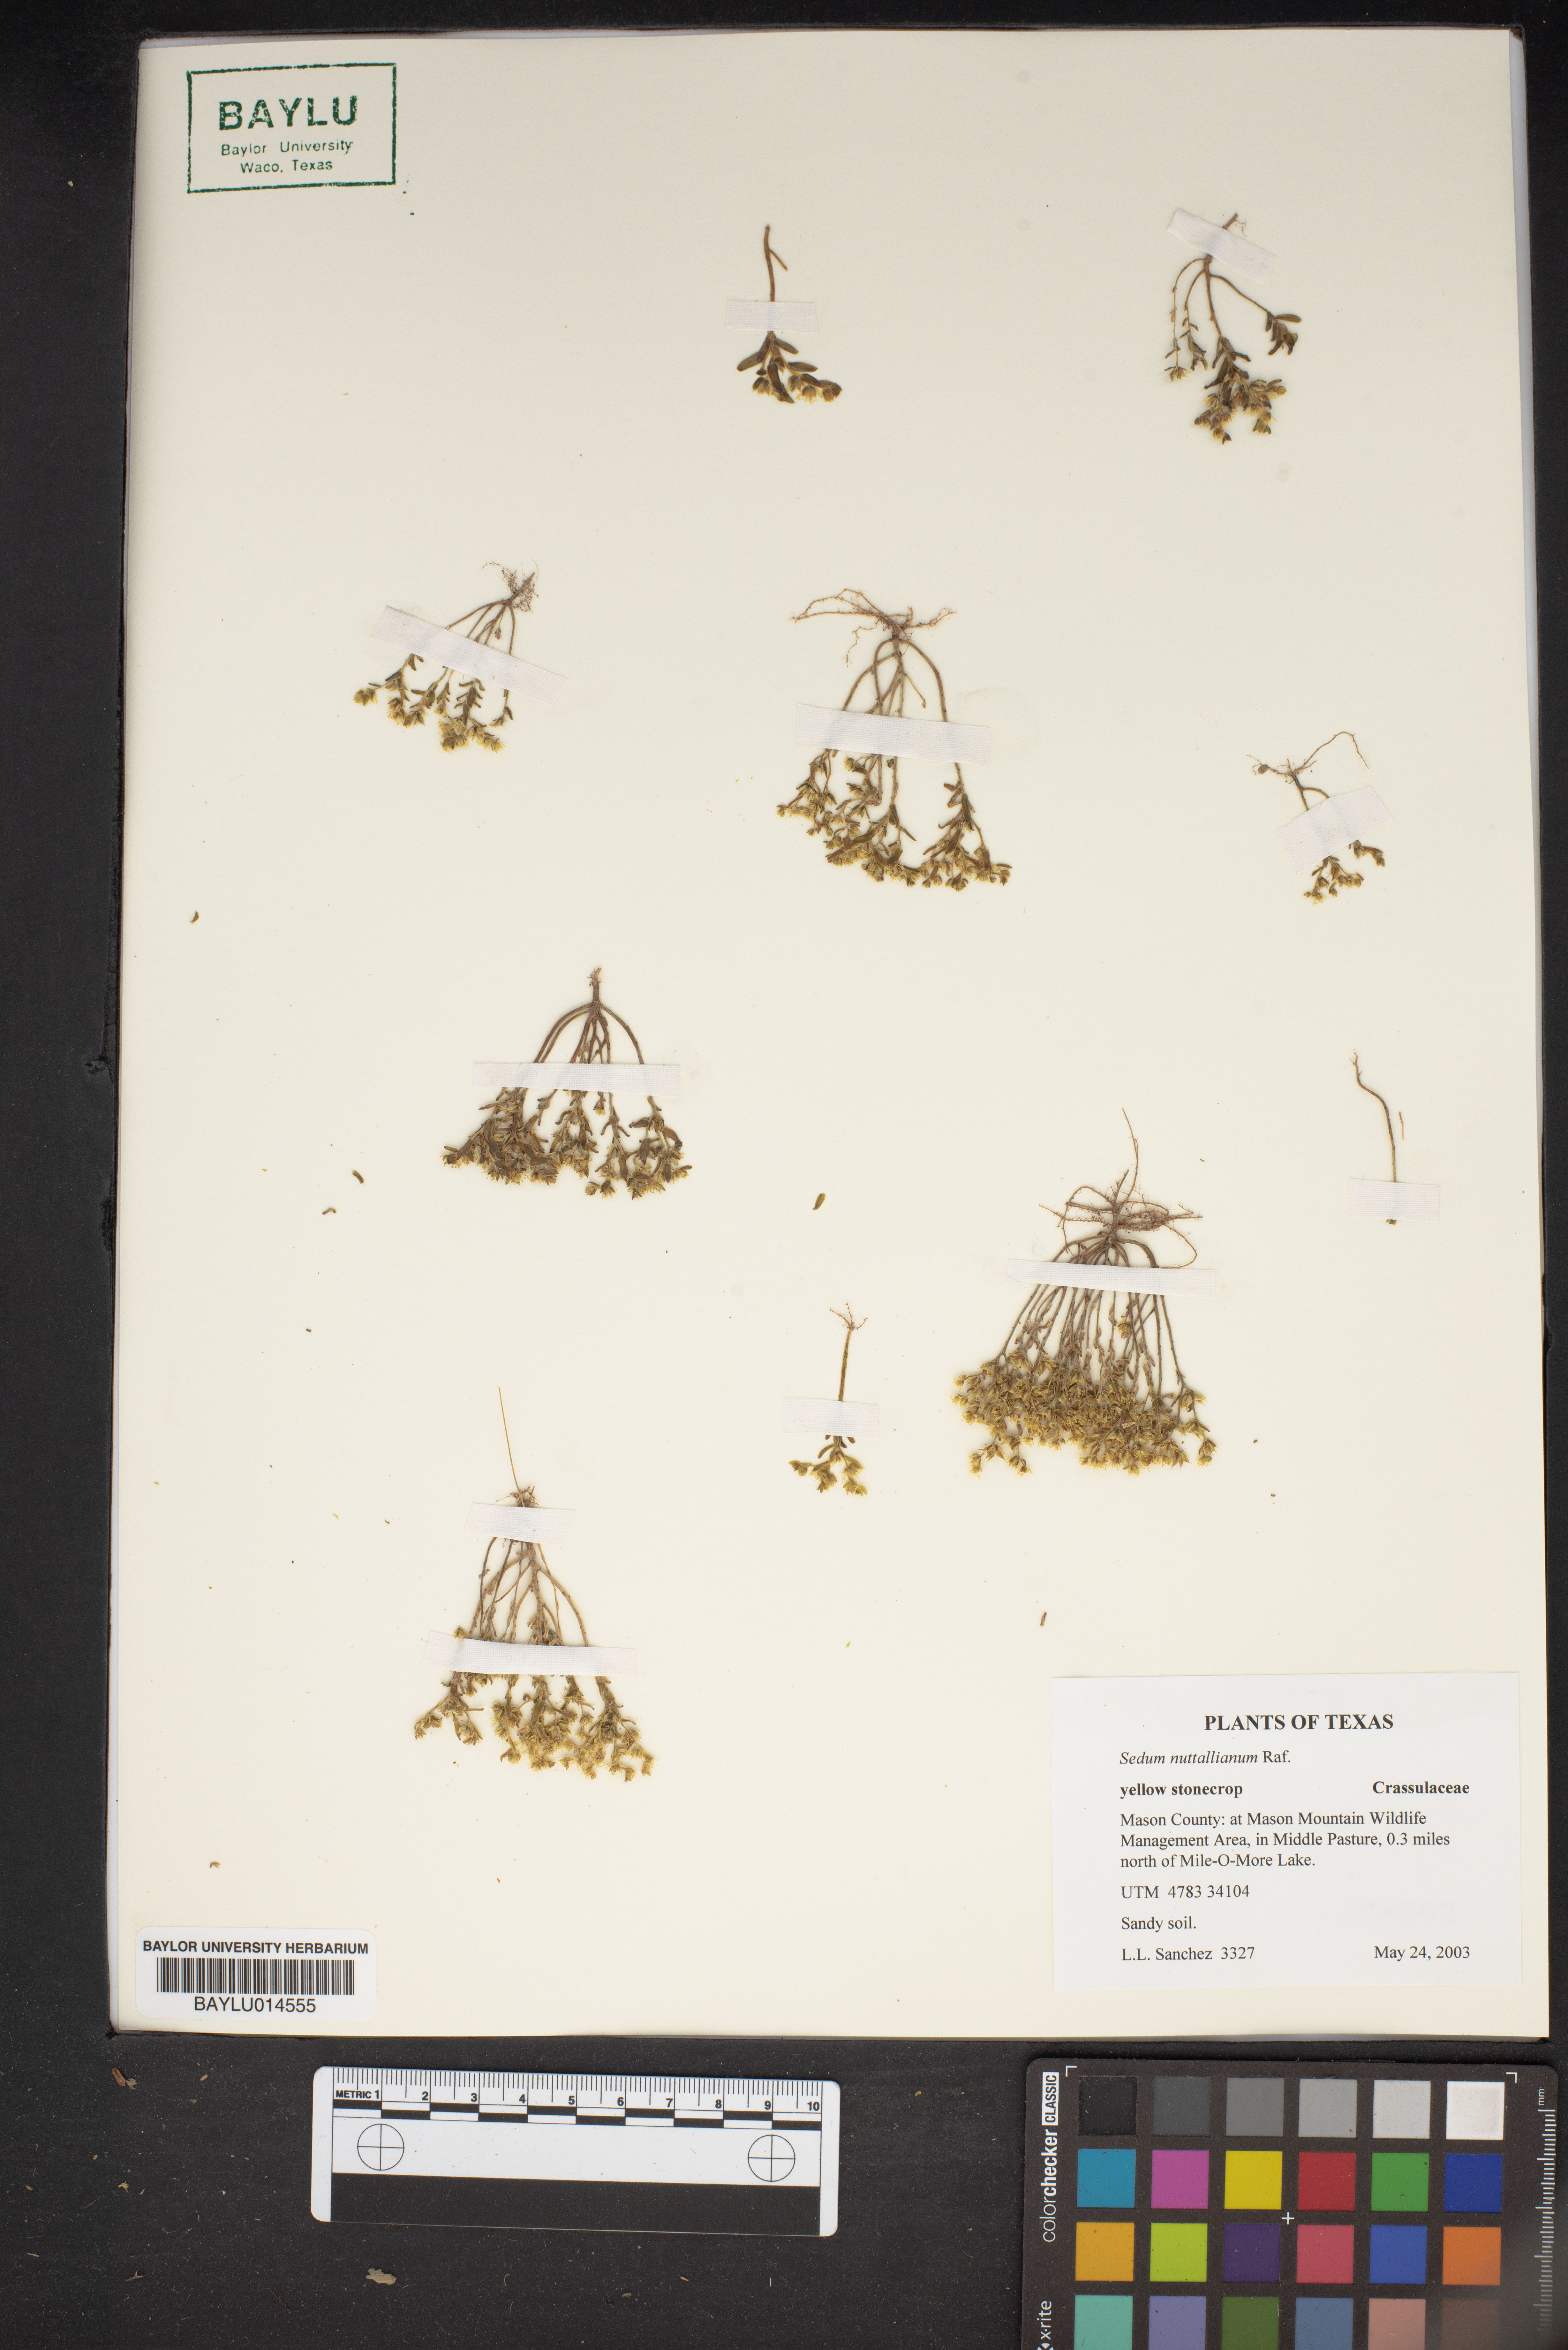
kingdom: Plantae
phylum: Tracheophyta
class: Magnoliopsida
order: Saxifragales
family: Crassulaceae
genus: Sedum
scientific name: Sedum nuttallii
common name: Yellow stonecrop
